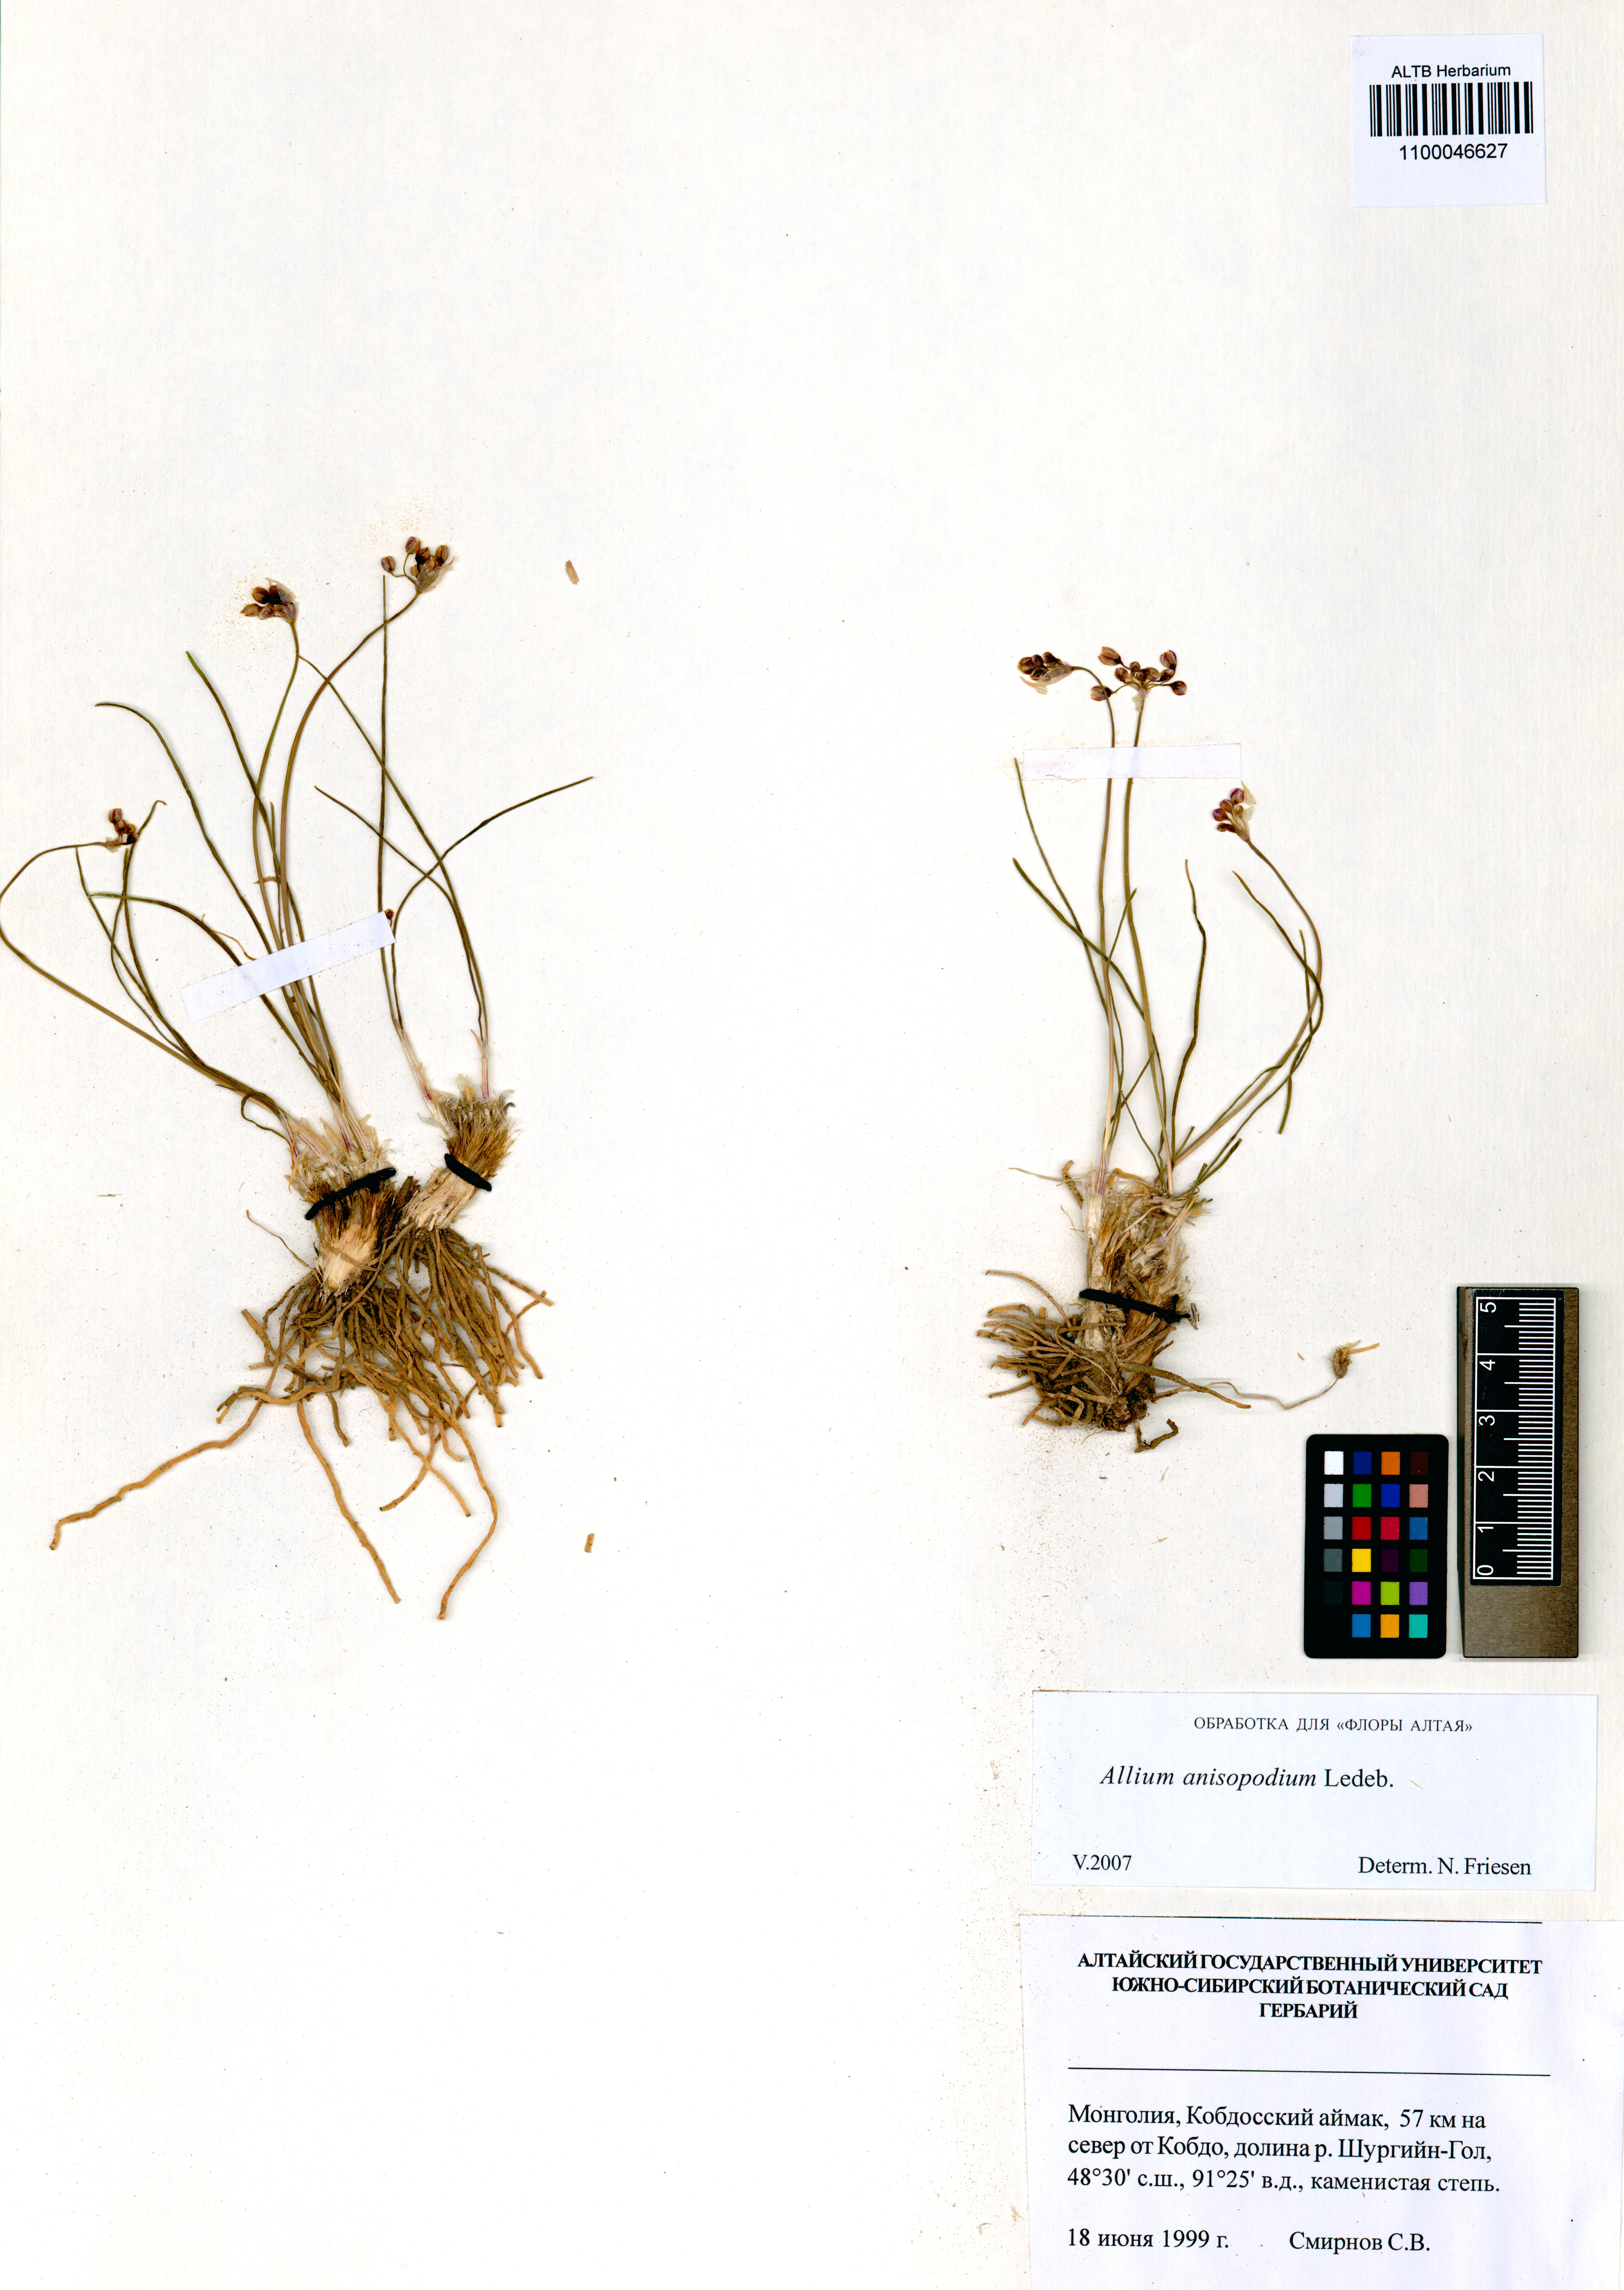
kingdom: Plantae
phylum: Tracheophyta
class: Liliopsida
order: Asparagales
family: Amaryllidaceae
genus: Allium
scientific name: Allium anisopodium
